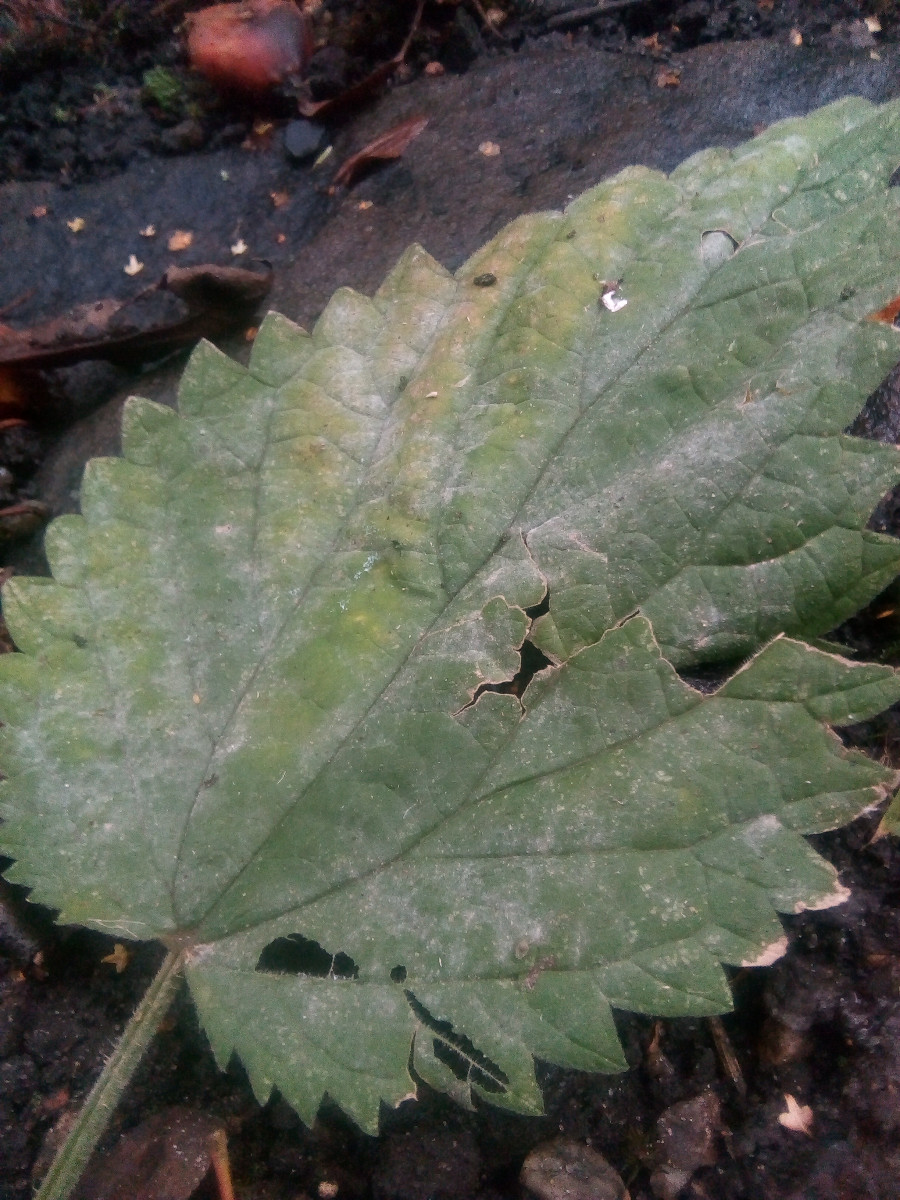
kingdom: Fungi
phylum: Ascomycota
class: Leotiomycetes
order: Helotiales
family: Erysiphaceae
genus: Erysiphe
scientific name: Erysiphe urticae
